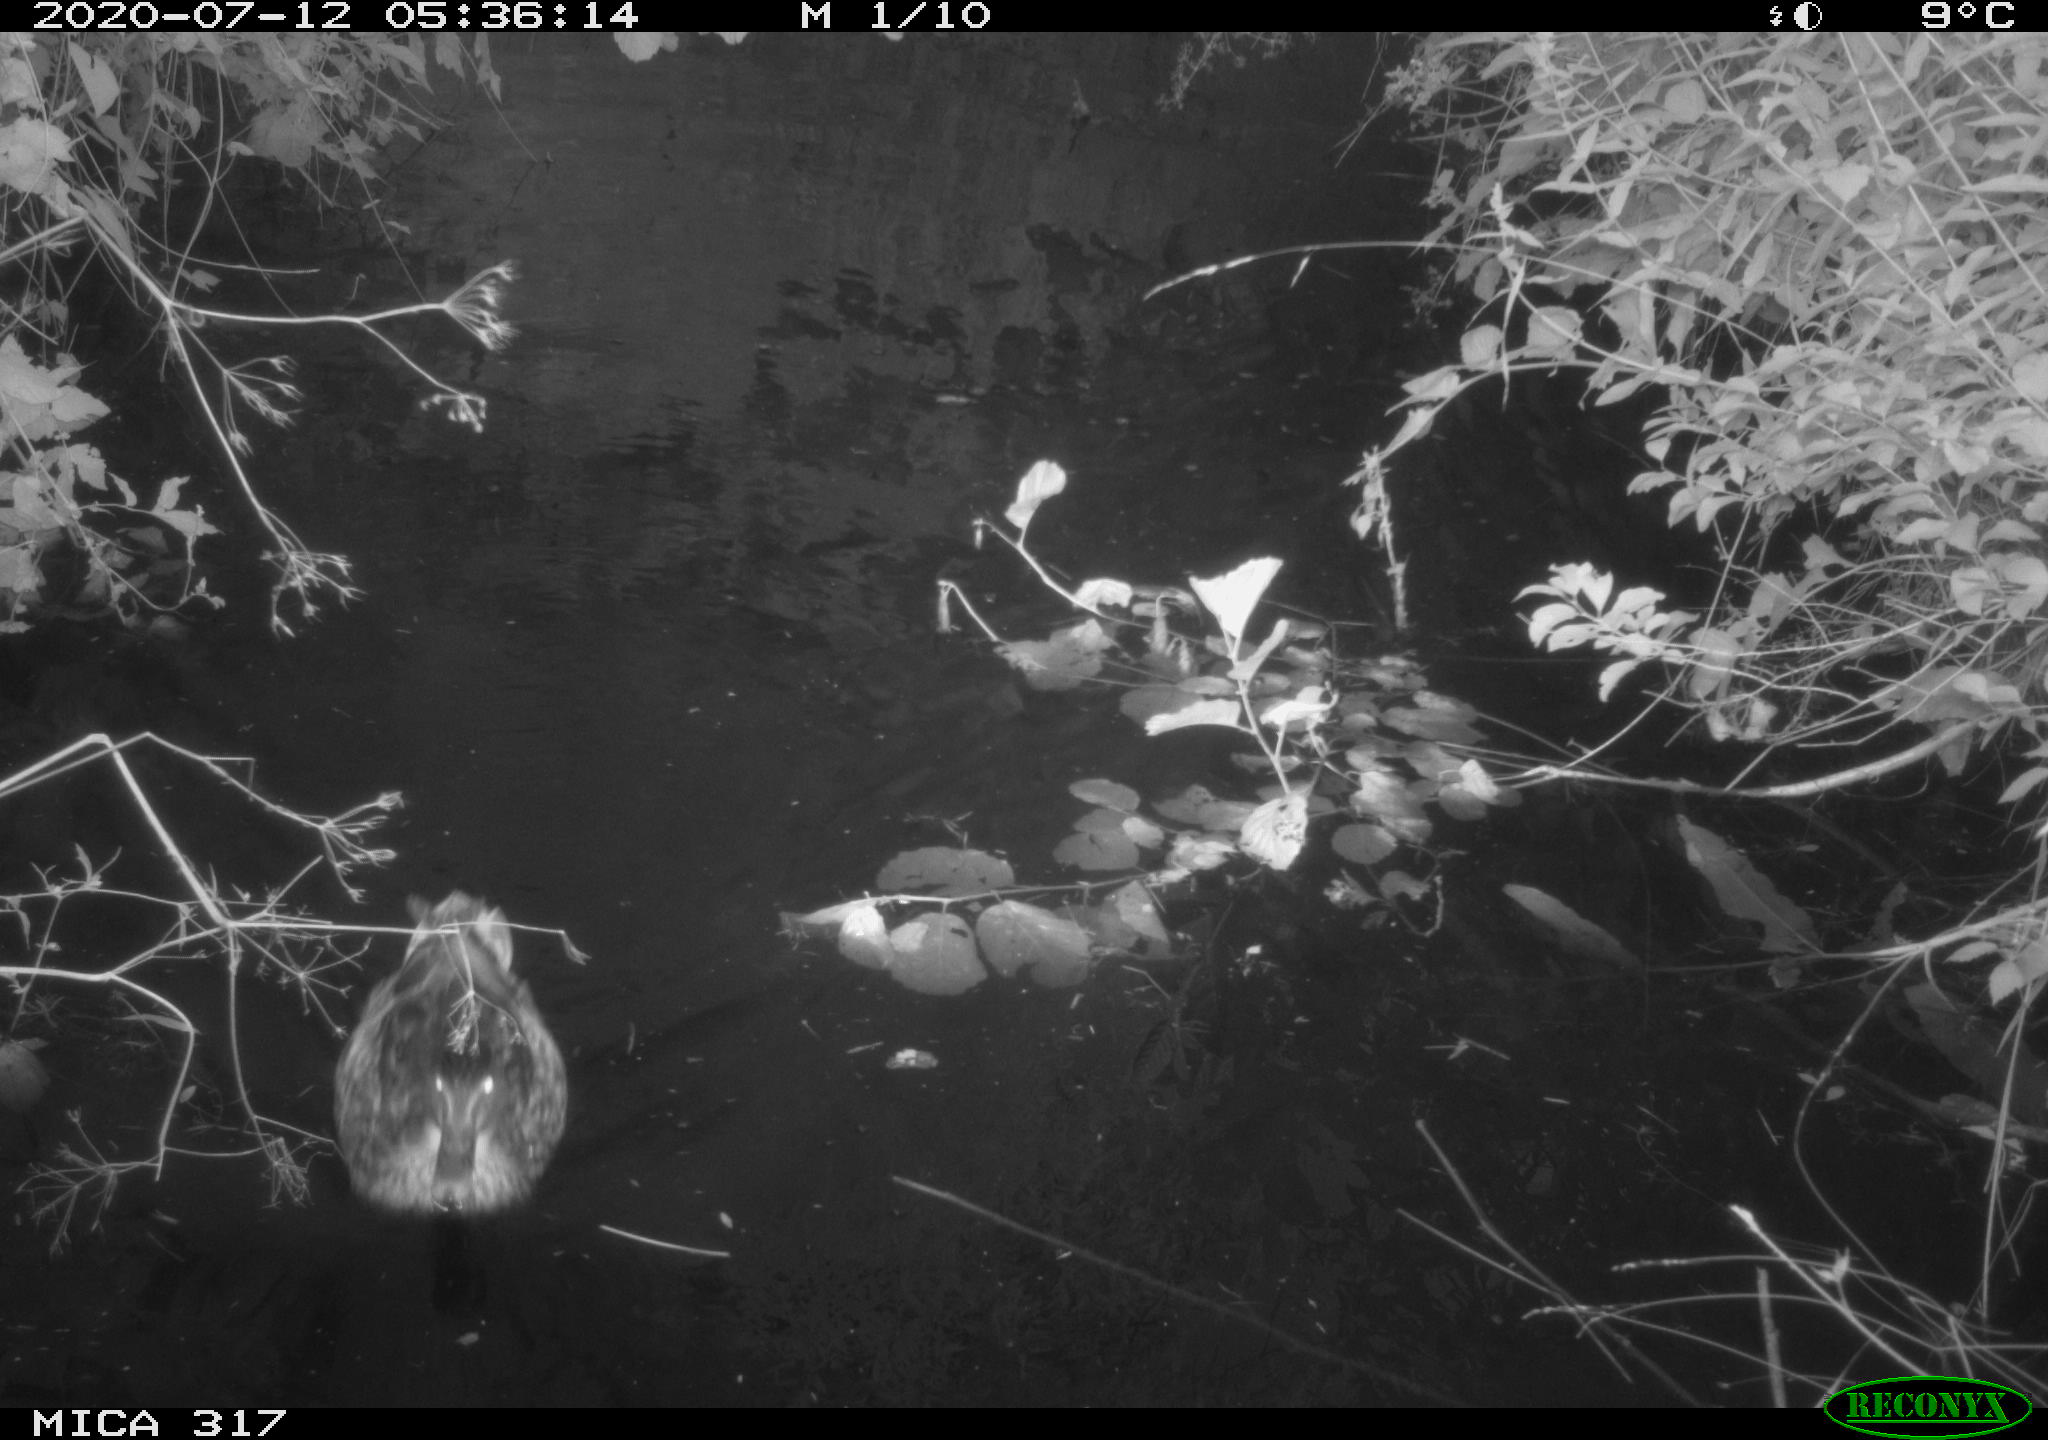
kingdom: Animalia
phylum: Chordata
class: Aves
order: Anseriformes
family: Anatidae
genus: Anas
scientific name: Anas platyrhynchos
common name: Mallard
